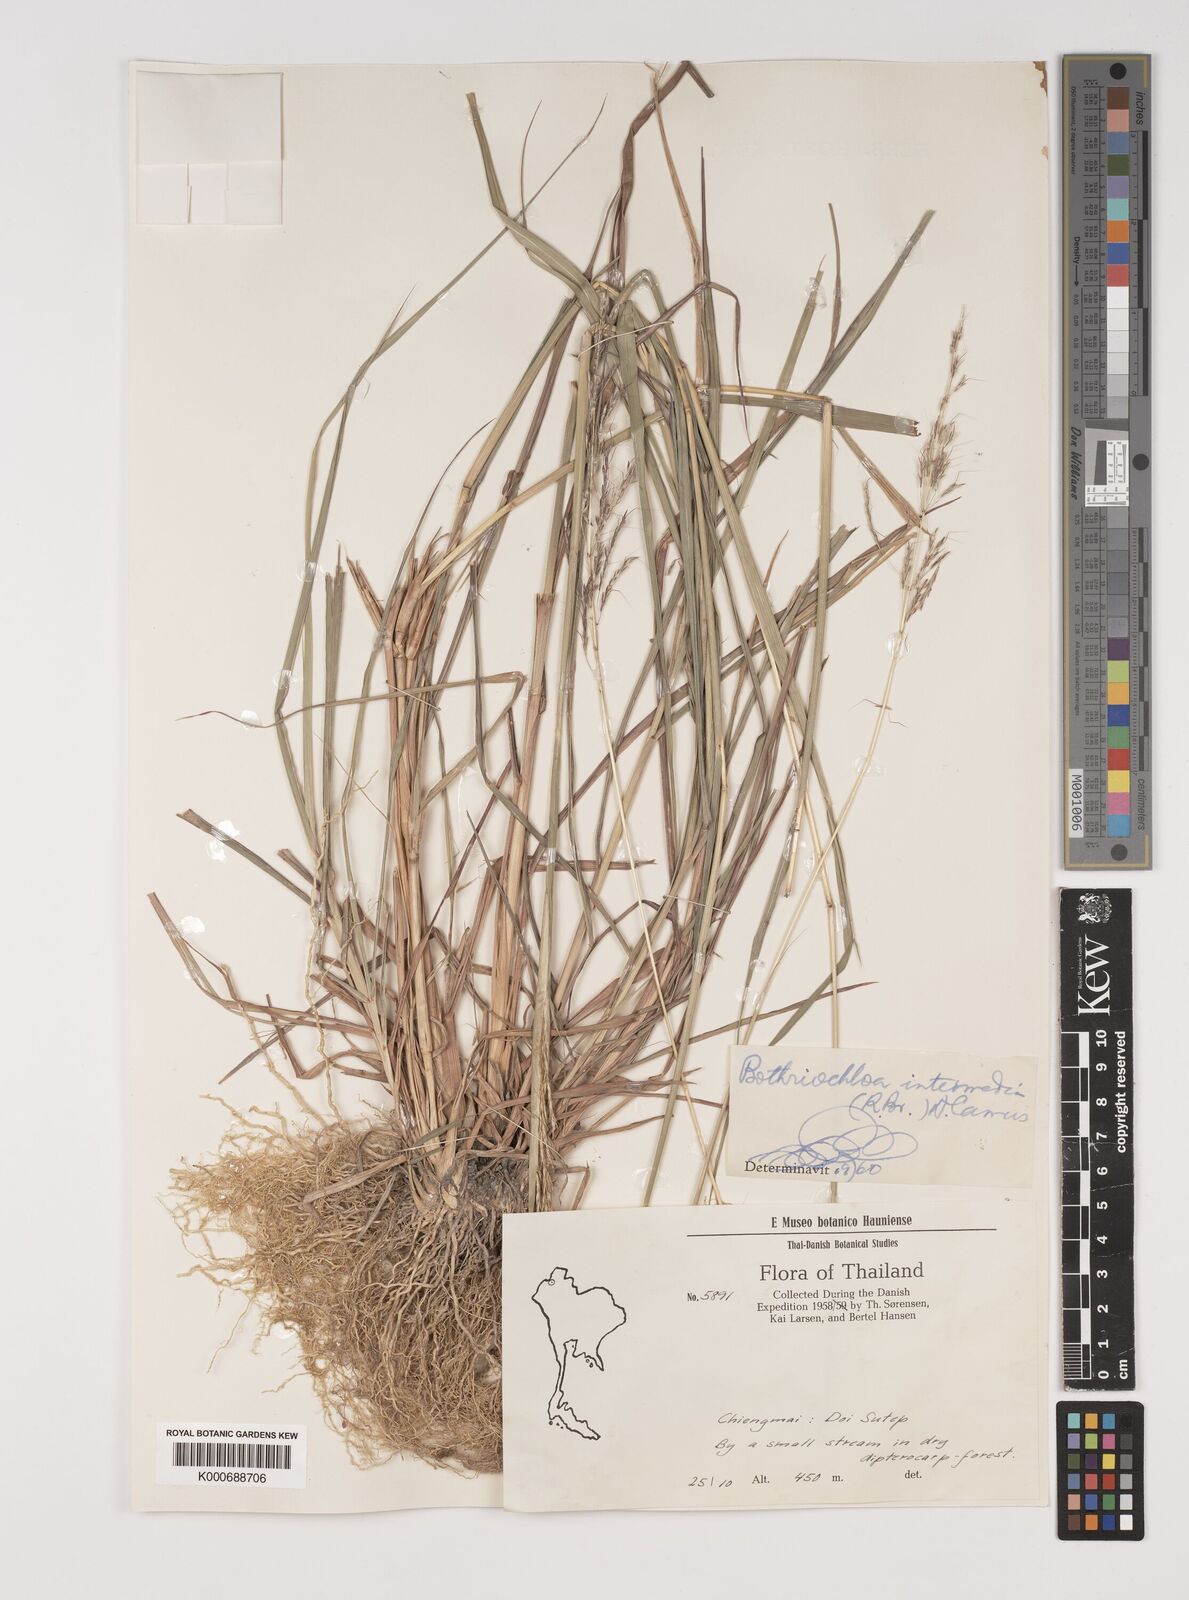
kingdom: Plantae
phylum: Tracheophyta
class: Liliopsida
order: Poales
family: Poaceae
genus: Bothriochloa
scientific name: Bothriochloa bladhii
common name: Caucasian bluestem
